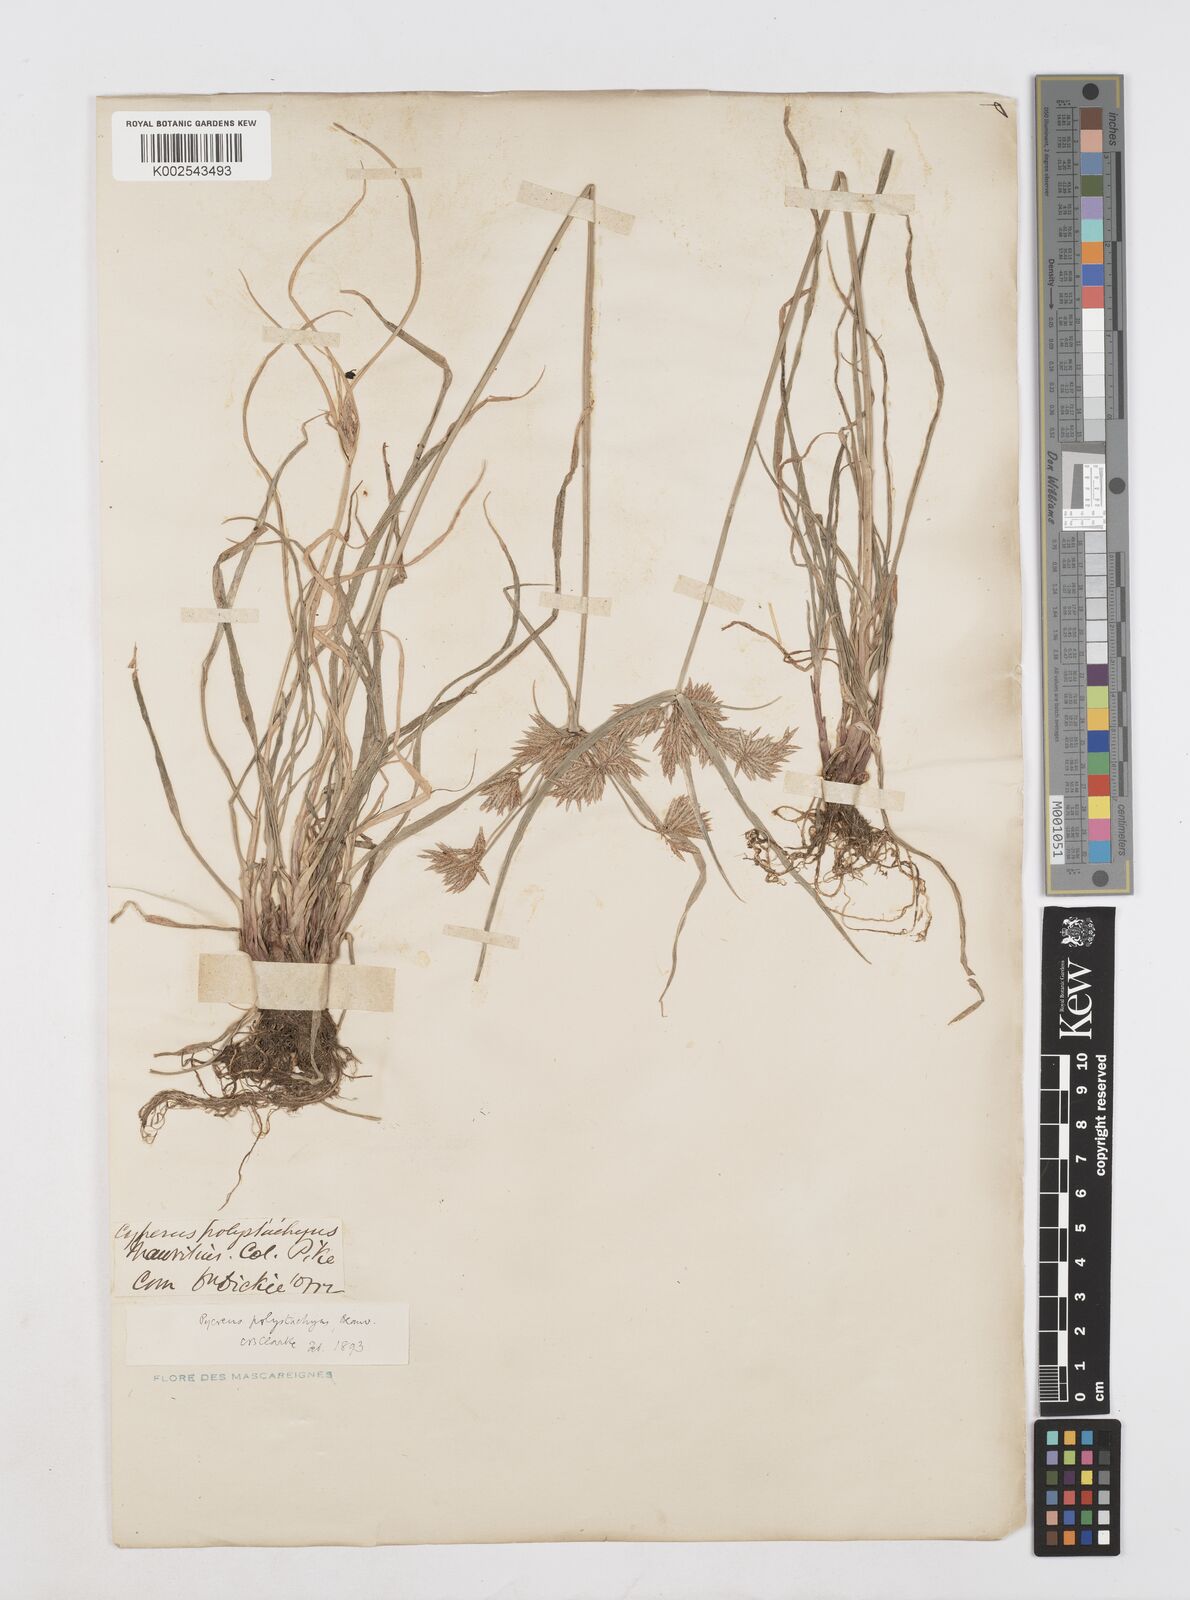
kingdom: Plantae
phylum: Tracheophyta
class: Liliopsida
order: Poales
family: Cyperaceae
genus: Cyperus
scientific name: Cyperus polystachyos
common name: Bunchy flat sedge
